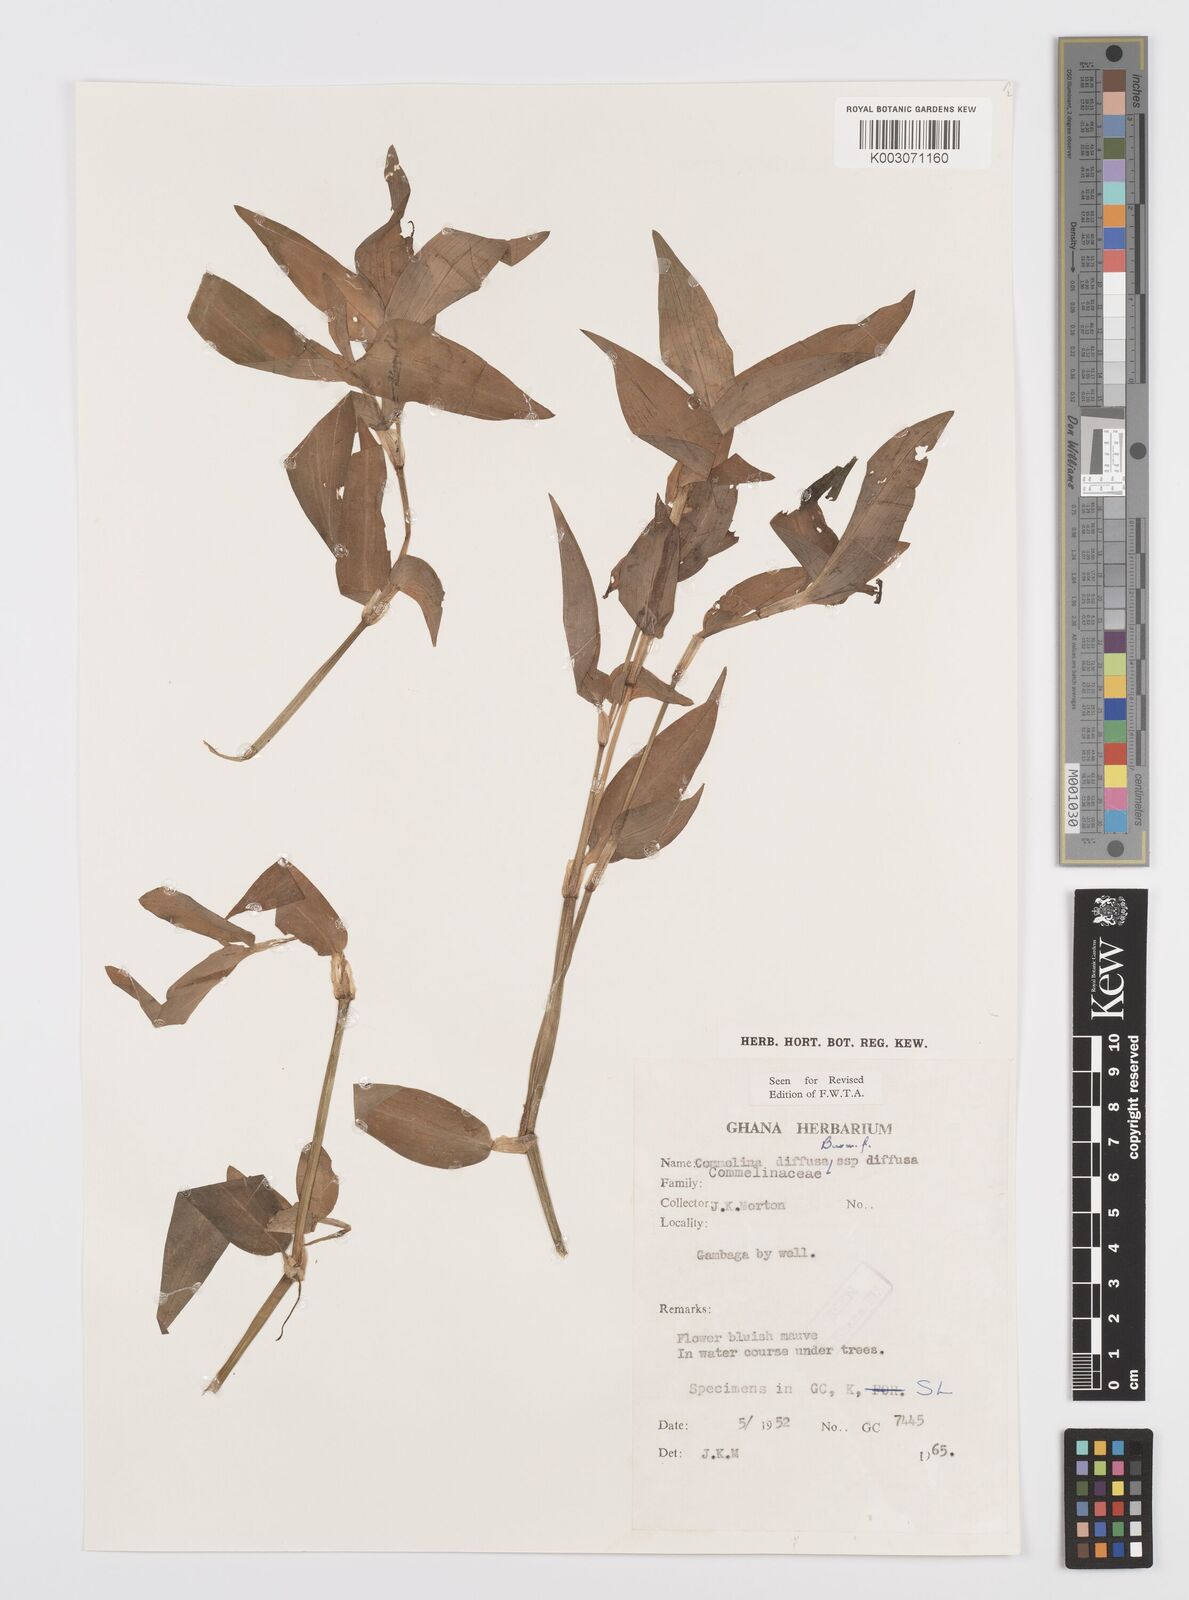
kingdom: Plantae
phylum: Tracheophyta
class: Liliopsida
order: Commelinales
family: Commelinaceae
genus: Commelina
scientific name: Commelina diffusa
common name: Climbing dayflower
